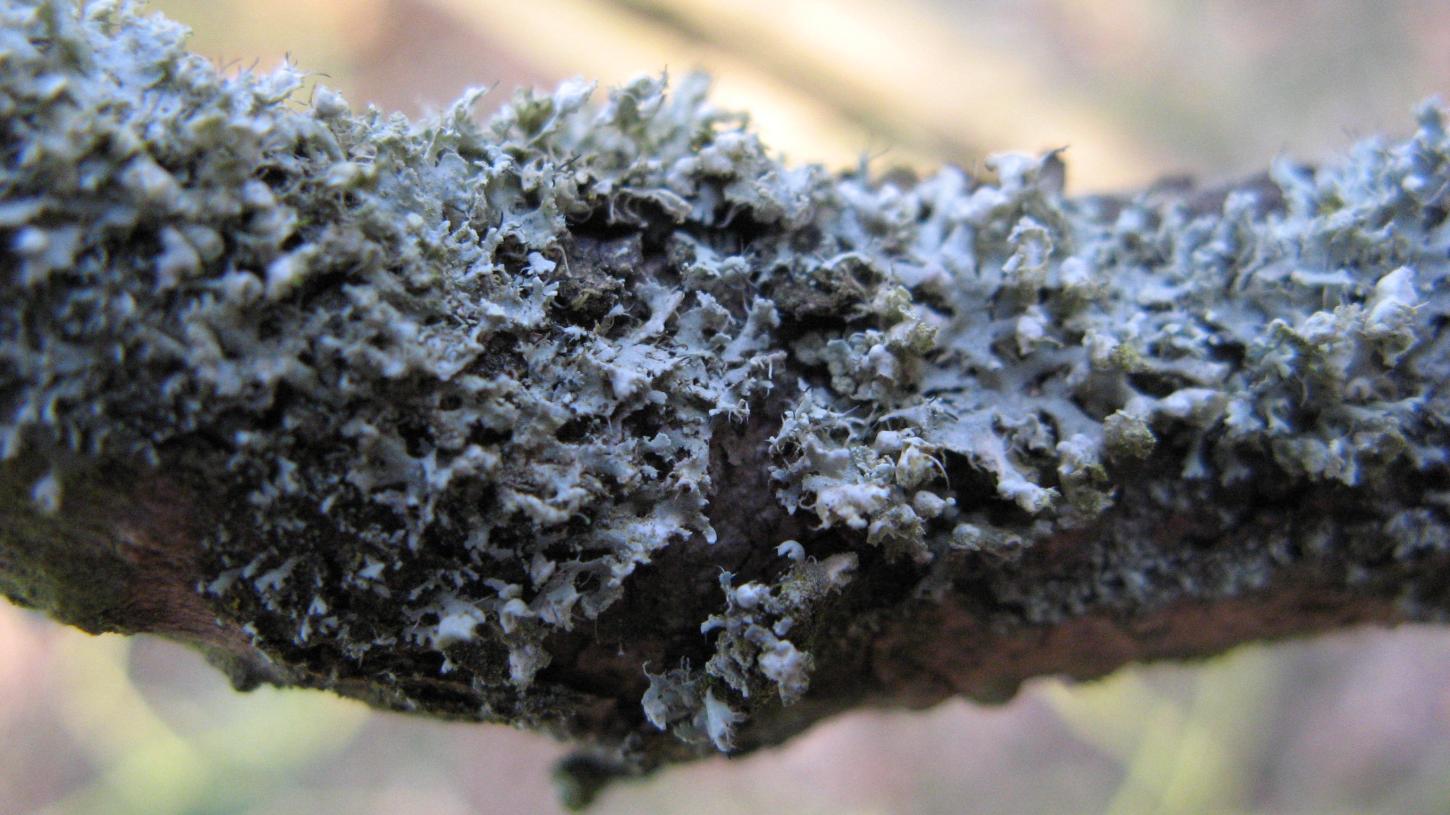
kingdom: Fungi
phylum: Ascomycota
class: Lecanoromycetes
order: Caliciales
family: Physciaceae
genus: Physcia
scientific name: Physcia adscendens
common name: hætte-rosetlav
